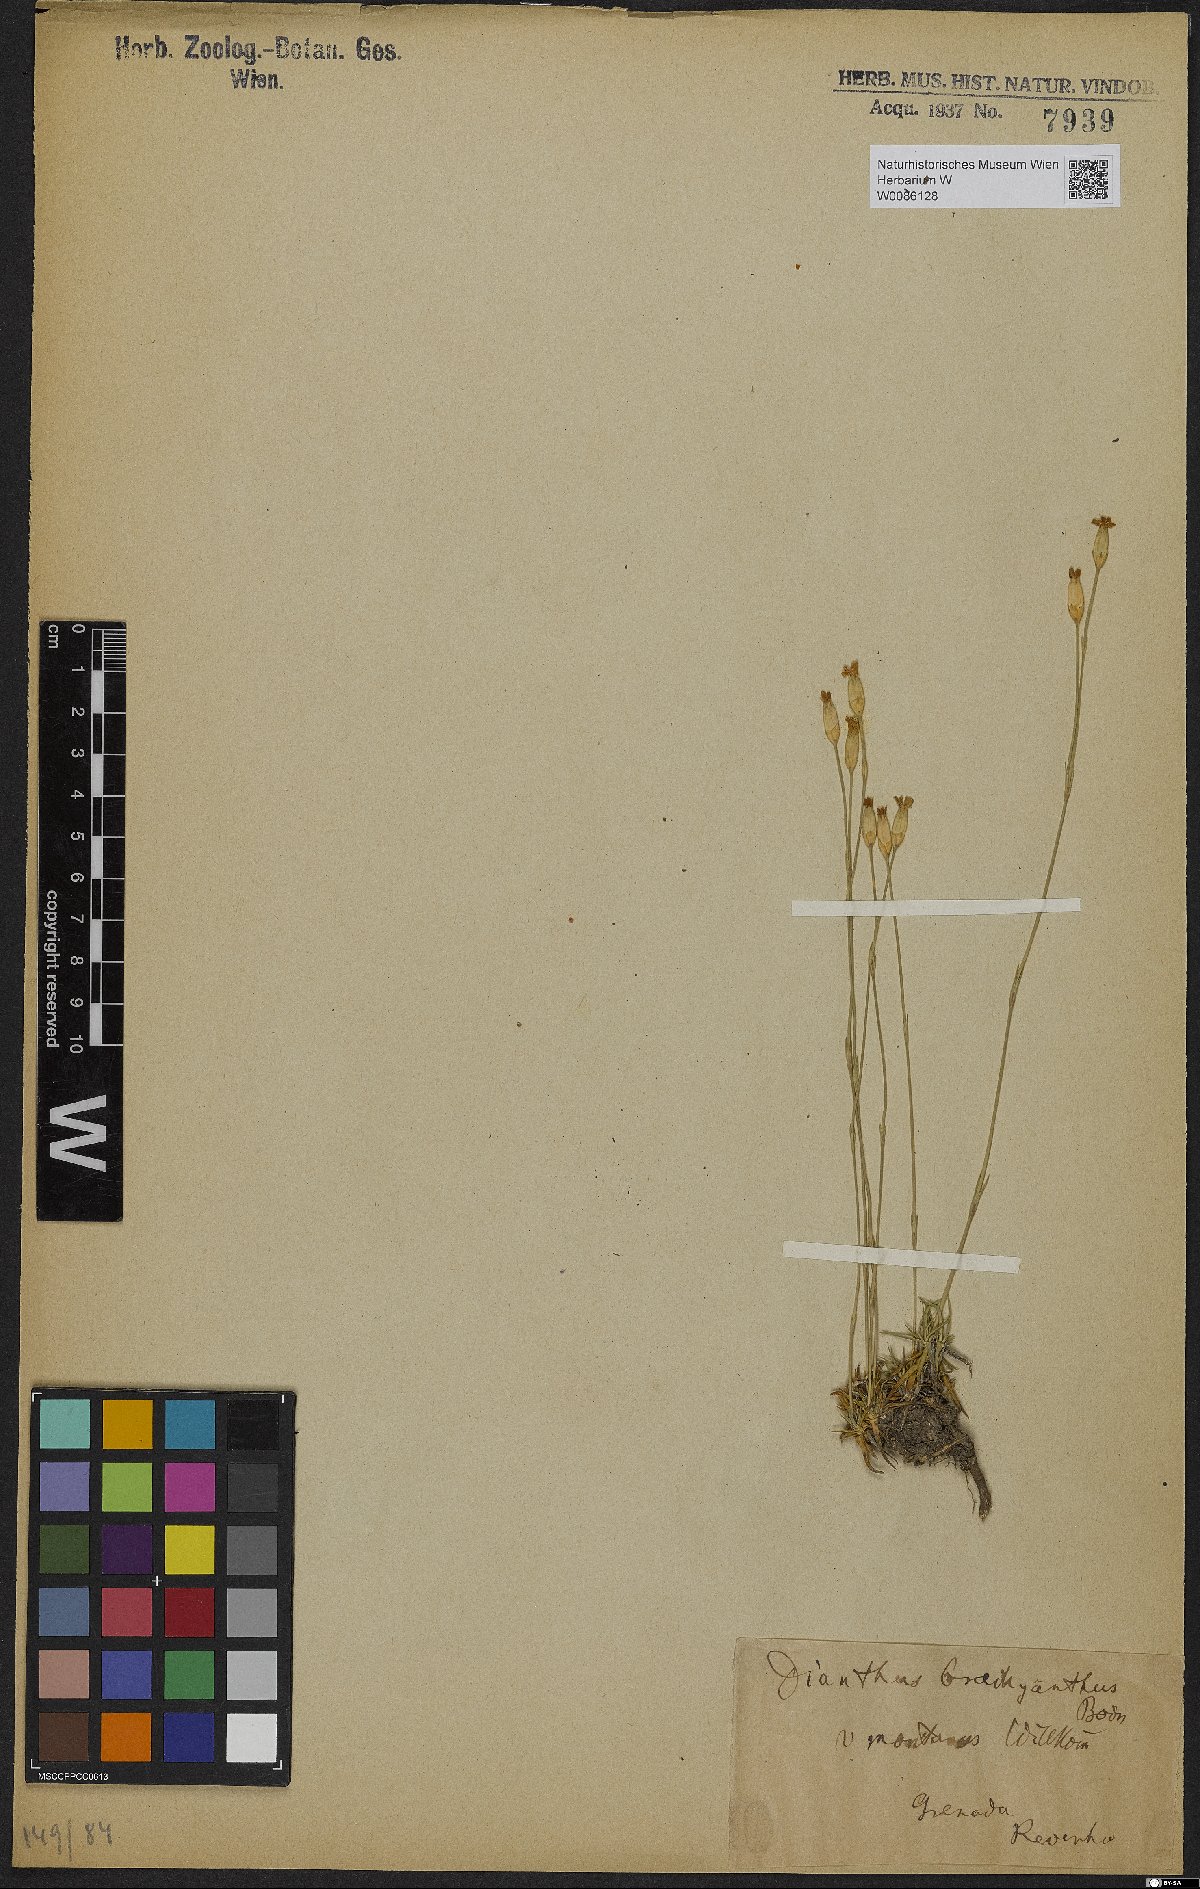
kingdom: Plantae
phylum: Tracheophyta
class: Magnoliopsida
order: Caryophyllales
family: Caryophyllaceae
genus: Dianthus
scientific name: Dianthus pungens
